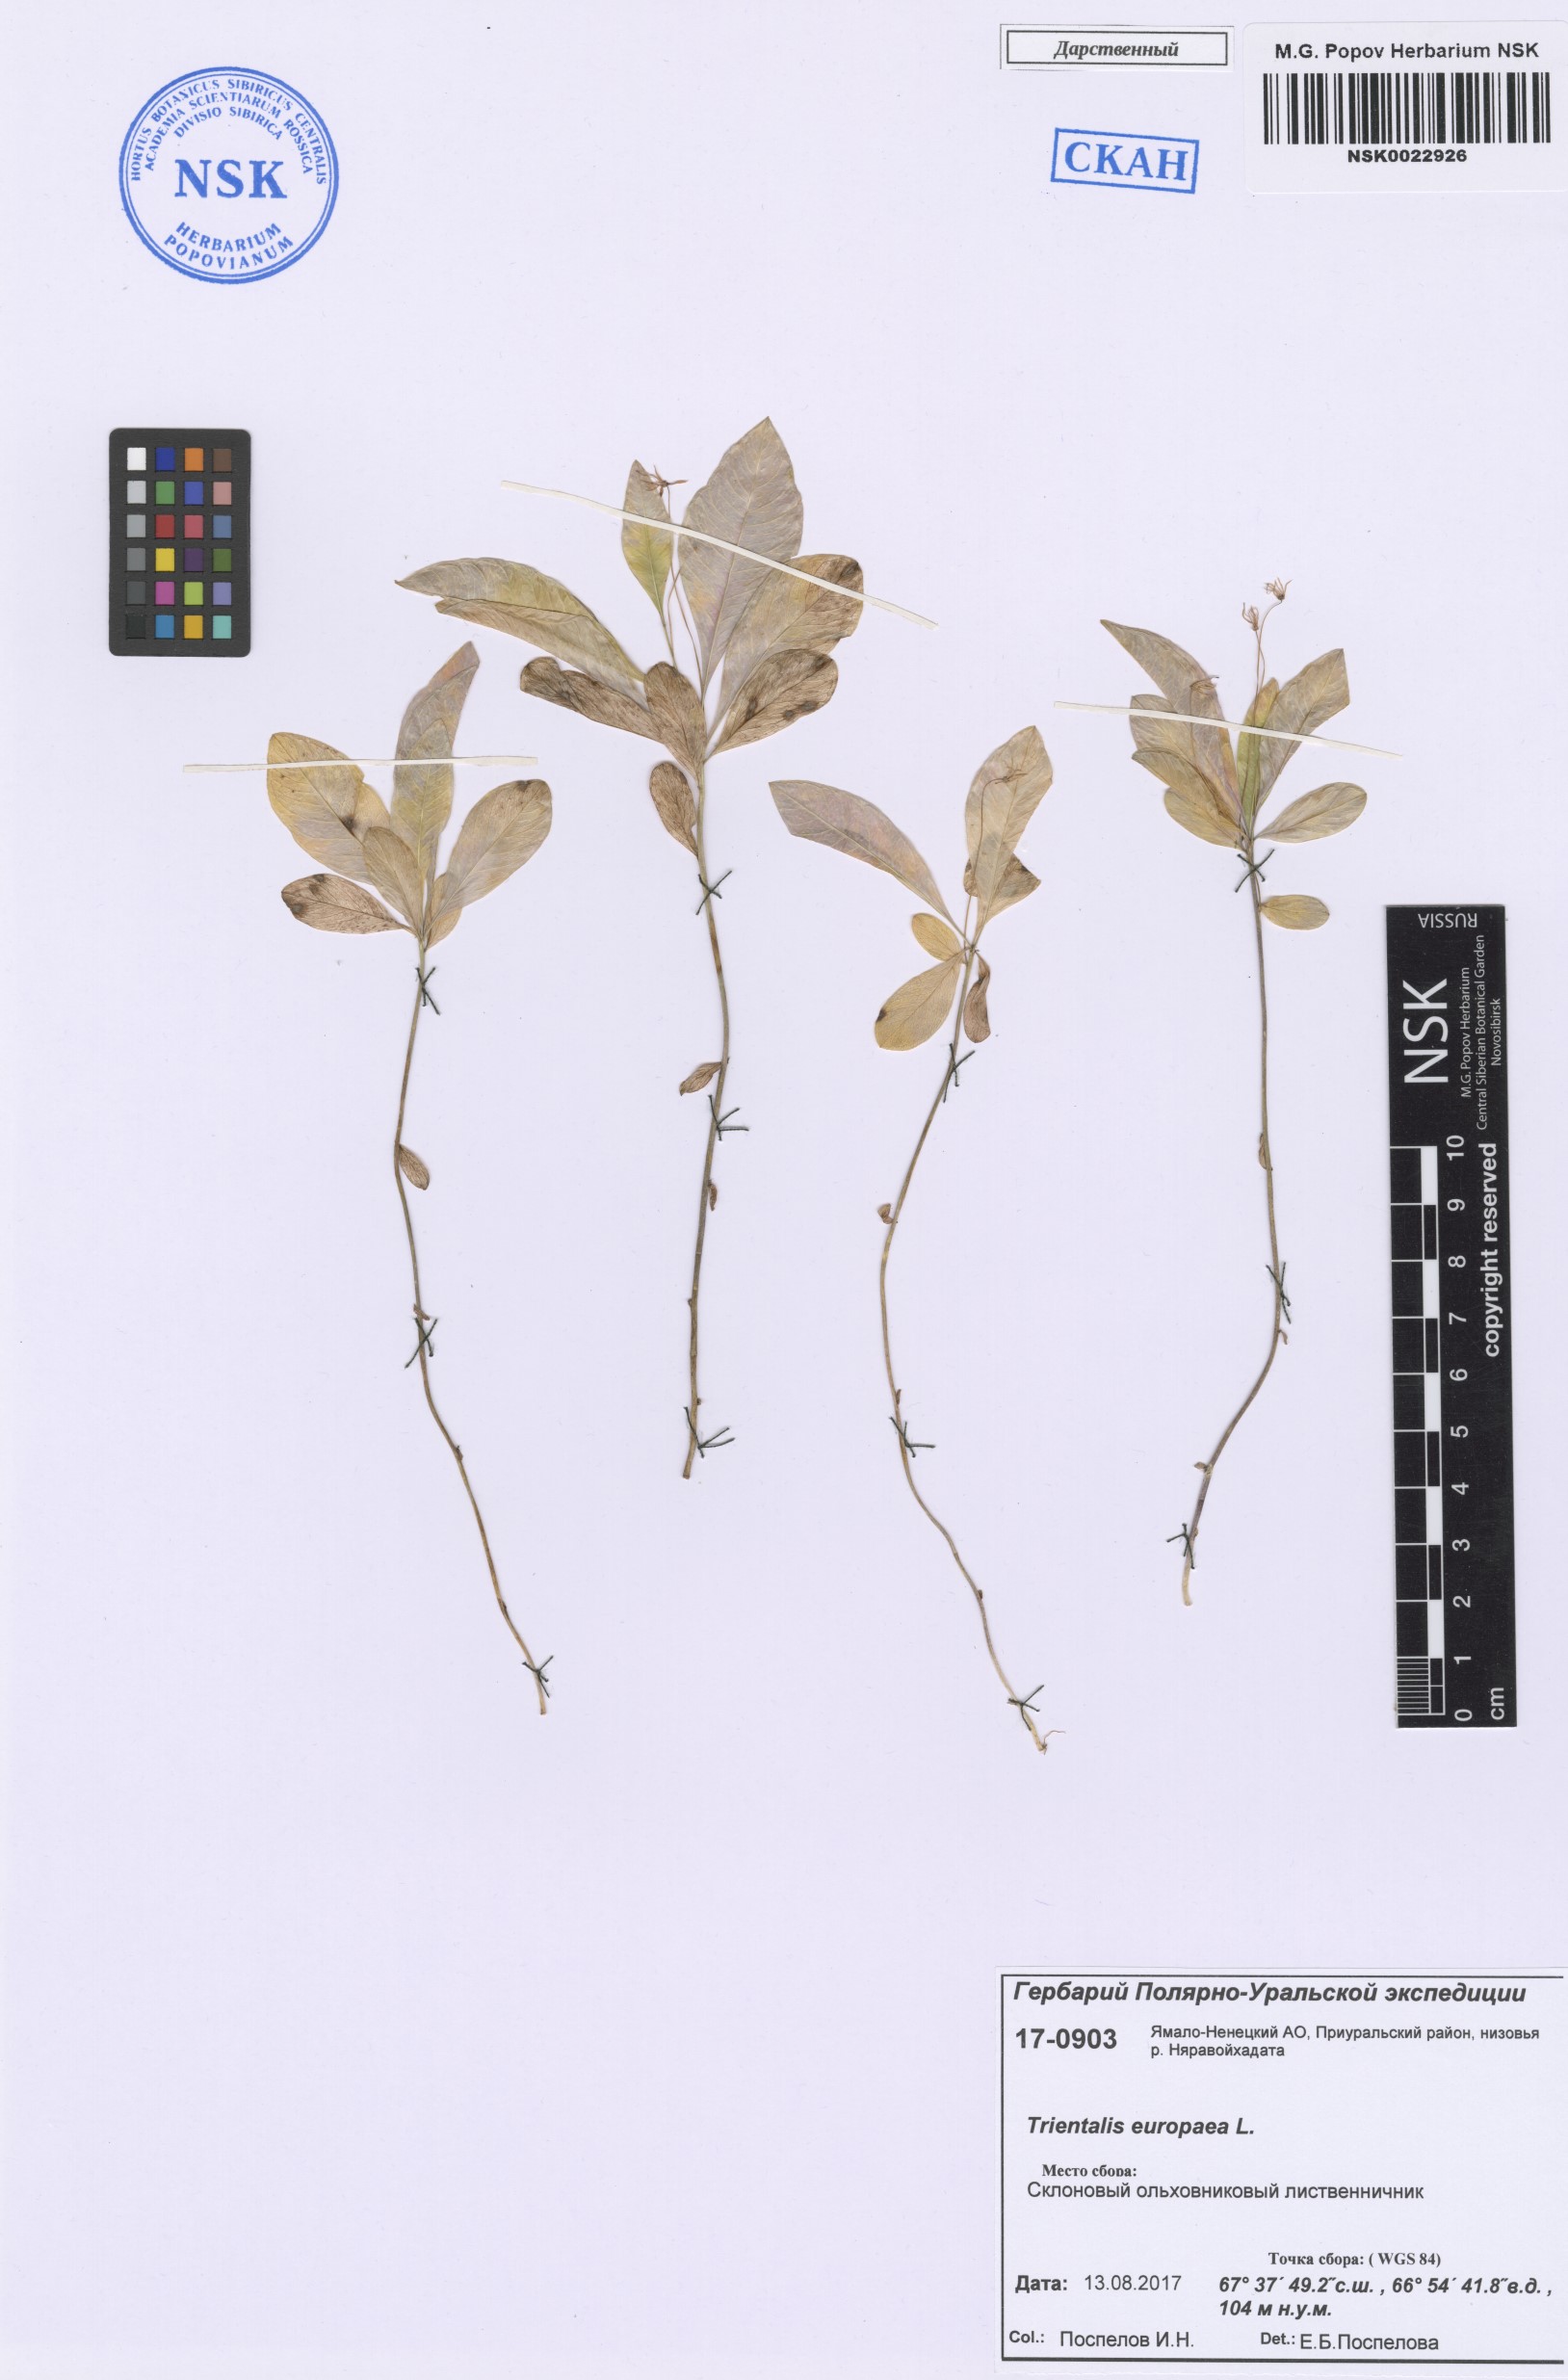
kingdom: Plantae
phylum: Tracheophyta
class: Magnoliopsida
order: Ericales
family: Primulaceae
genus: Lysimachia
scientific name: Lysimachia europaea
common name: Arctic starflower
